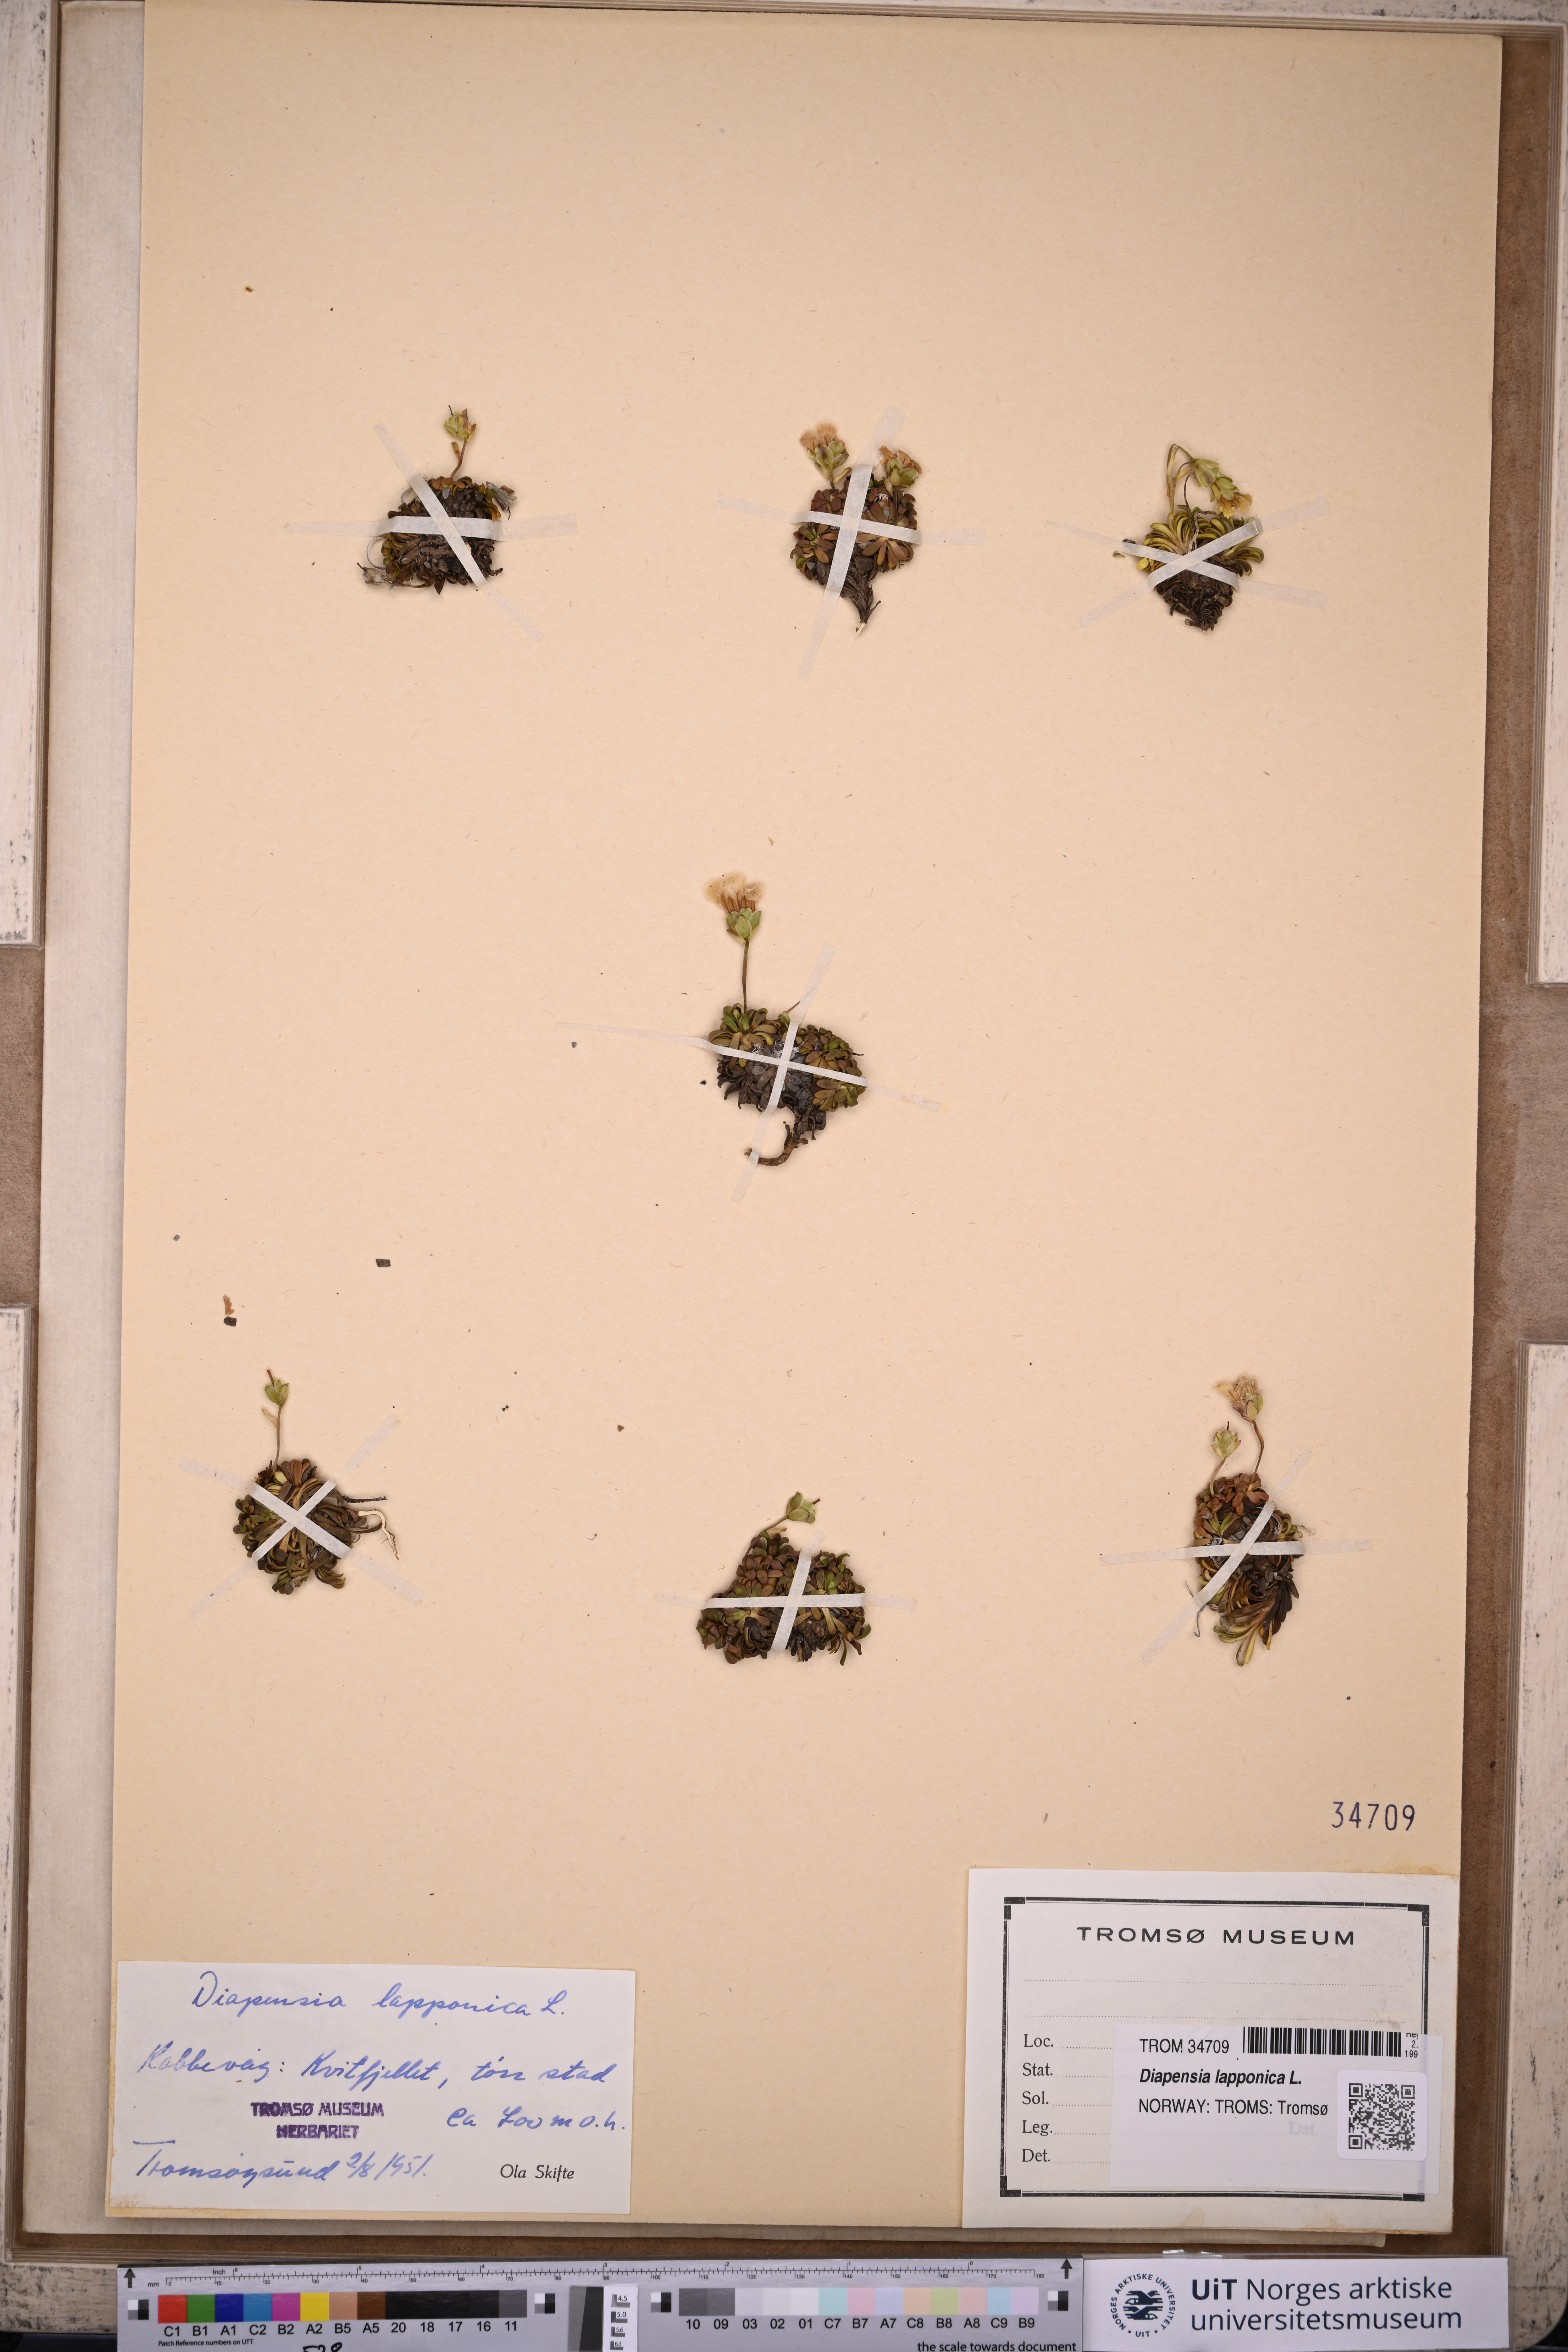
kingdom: Plantae
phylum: Tracheophyta
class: Magnoliopsida
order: Ericales
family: Diapensiaceae
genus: Diapensia
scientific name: Diapensia lapponica
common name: Diapensia
